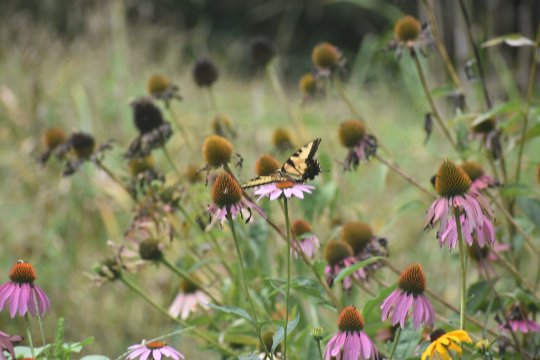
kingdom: Animalia
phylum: Arthropoda
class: Insecta
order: Lepidoptera
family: Papilionidae
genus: Pterourus
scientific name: Pterourus glaucus
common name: Eastern Tiger Swallowtail
